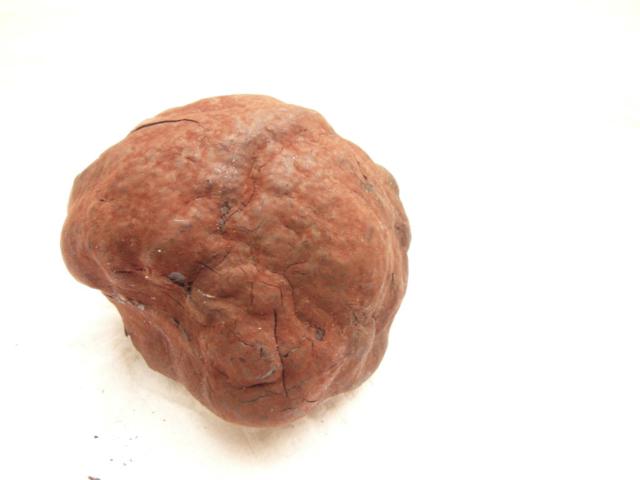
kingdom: Fungi
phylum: Ascomycota
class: Sordariomycetes
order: Xylariales
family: Hypoxylaceae
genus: Daldinia
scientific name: Daldinia concentrica
